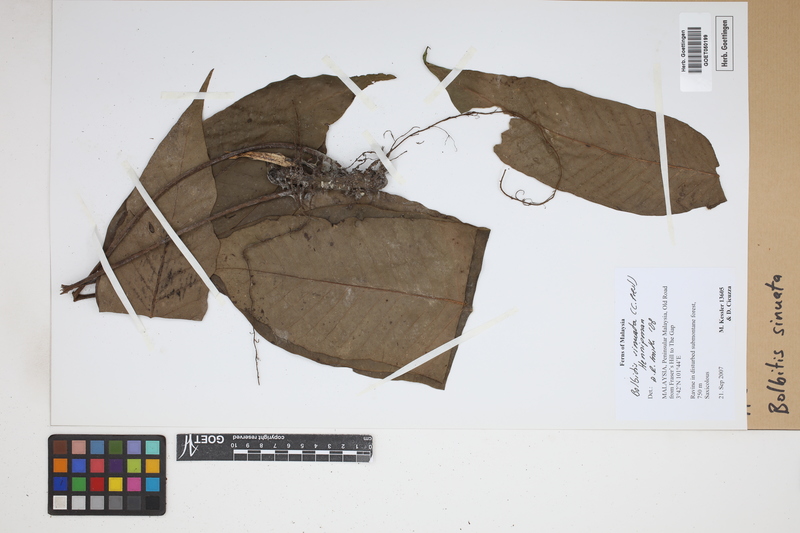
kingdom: Plantae
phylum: Tracheophyta
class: Polypodiopsida
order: Polypodiales
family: Dryopteridaceae
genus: Bolbitis
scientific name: Bolbitis sinuata
